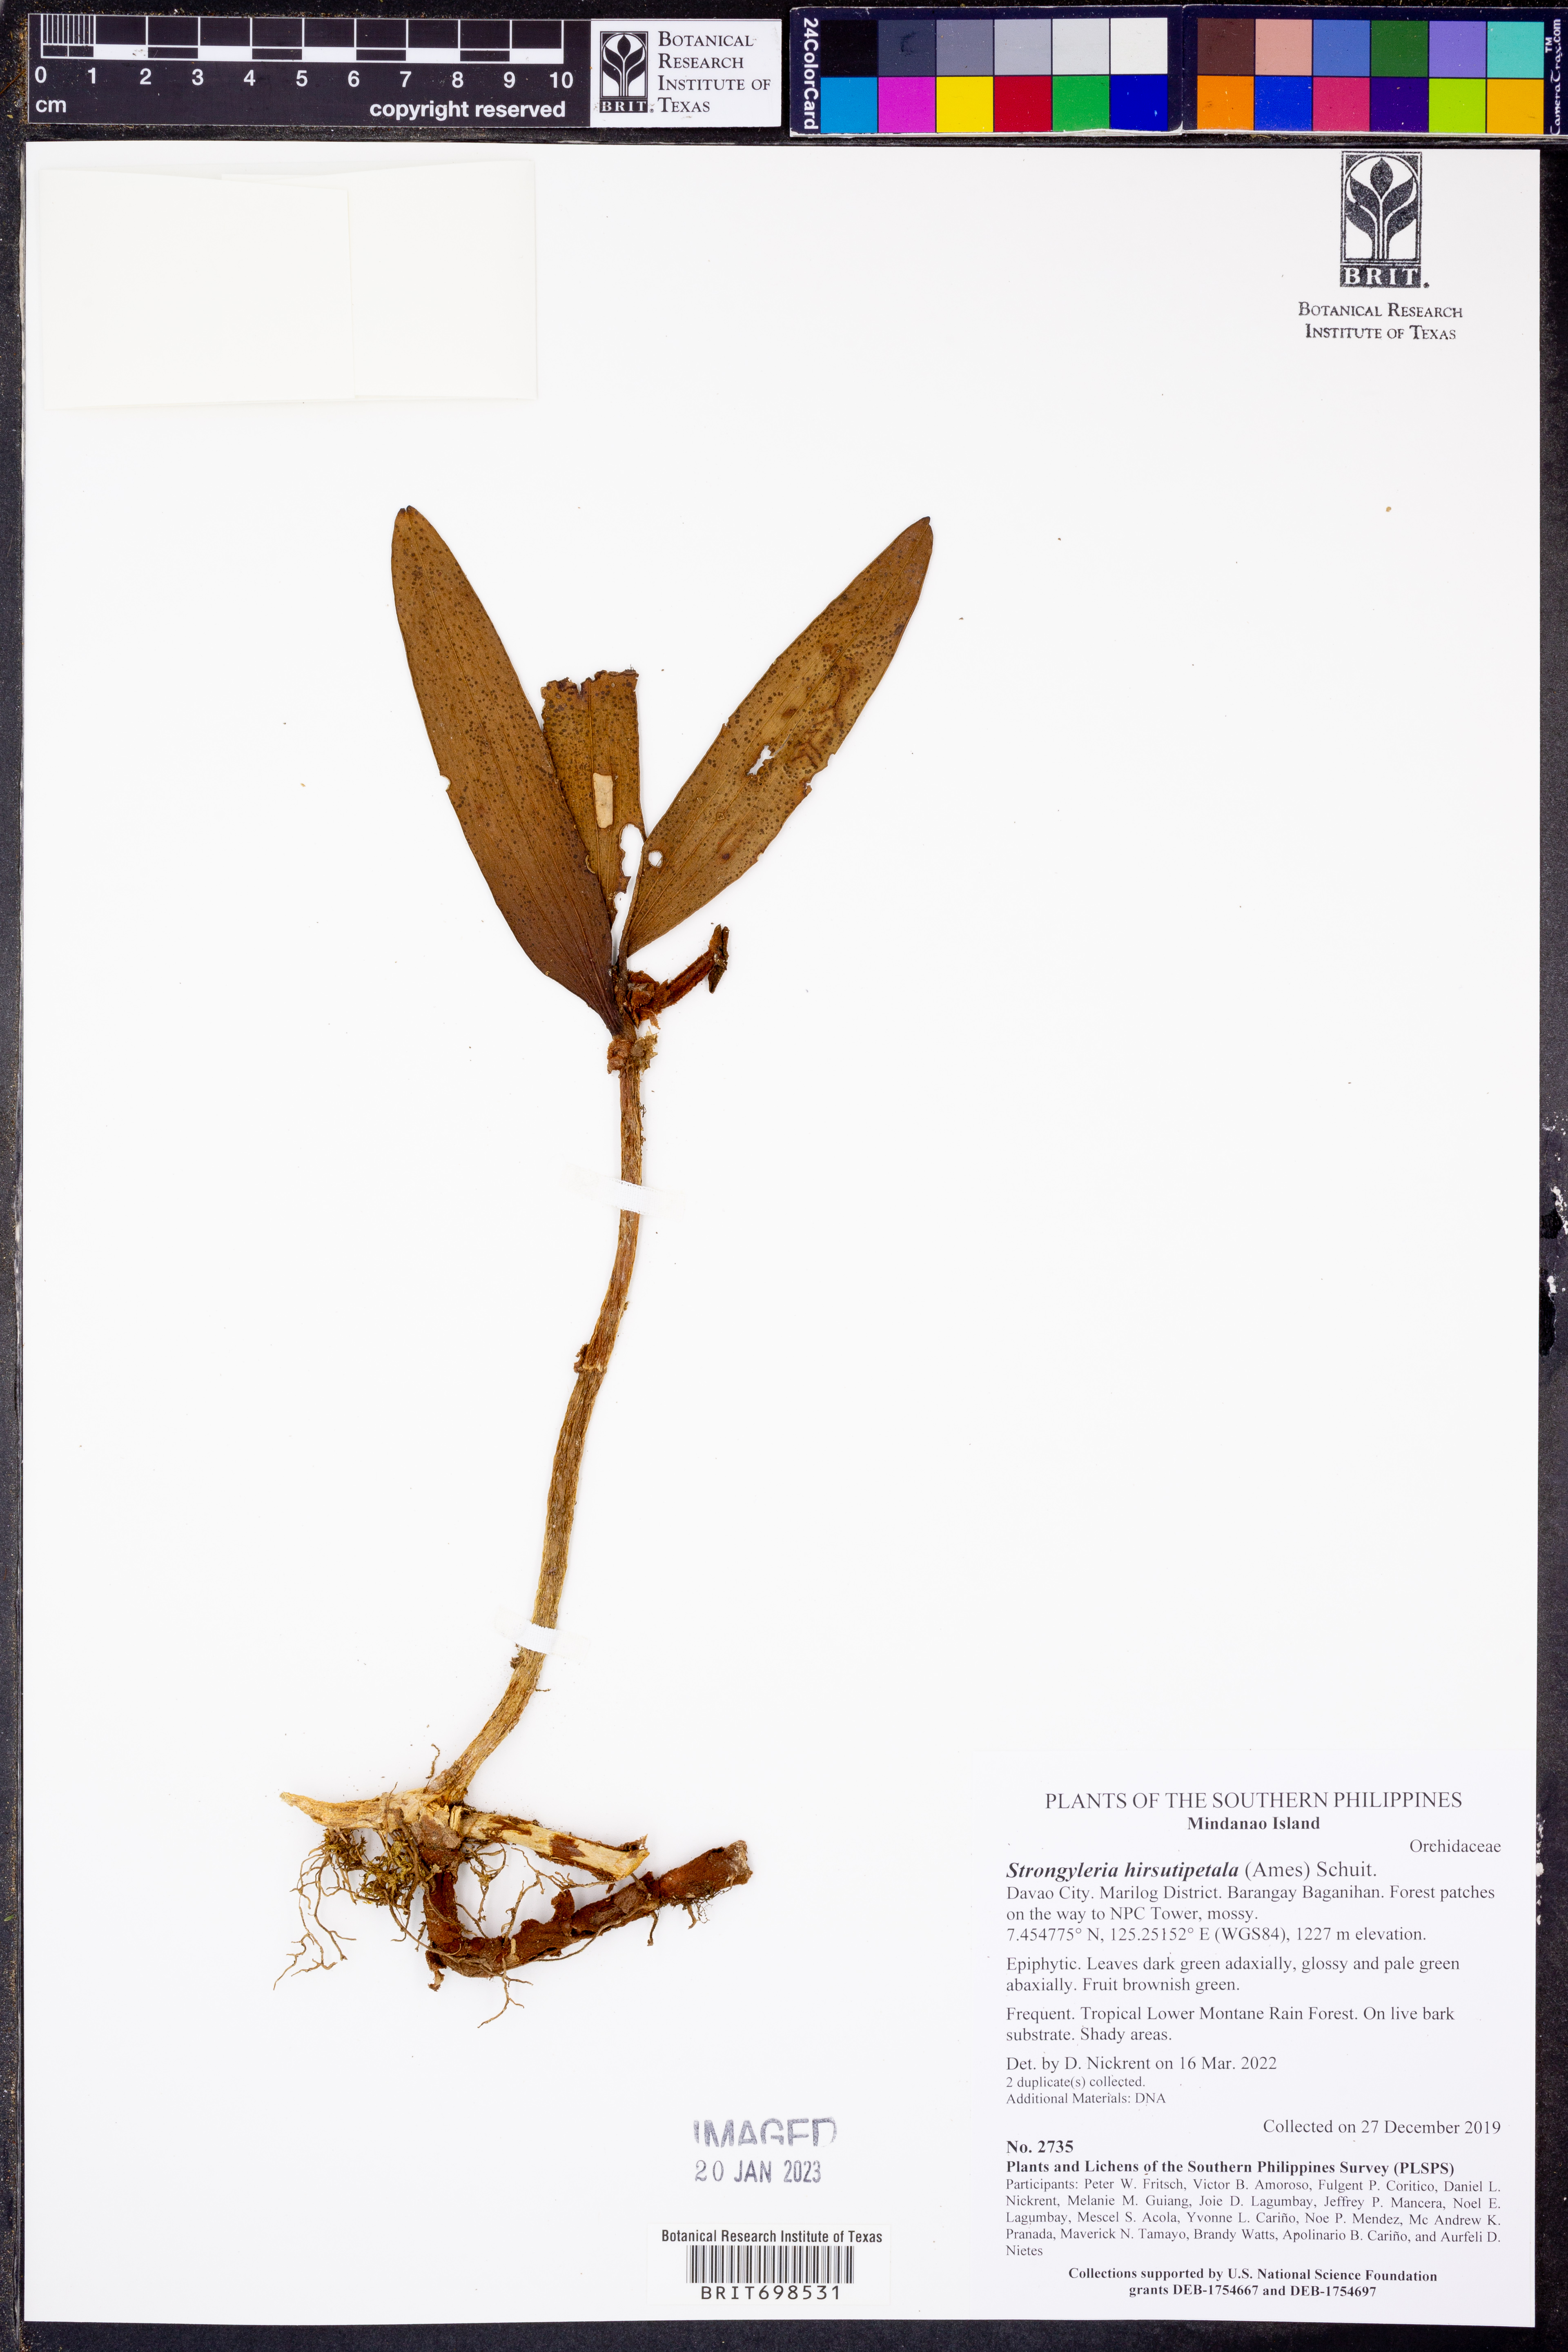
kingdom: Plantae
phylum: Tracheophyta
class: Liliopsida
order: Asparagales
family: Orchidaceae
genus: Strongyleria
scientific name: Strongyleria hirsutipetala
